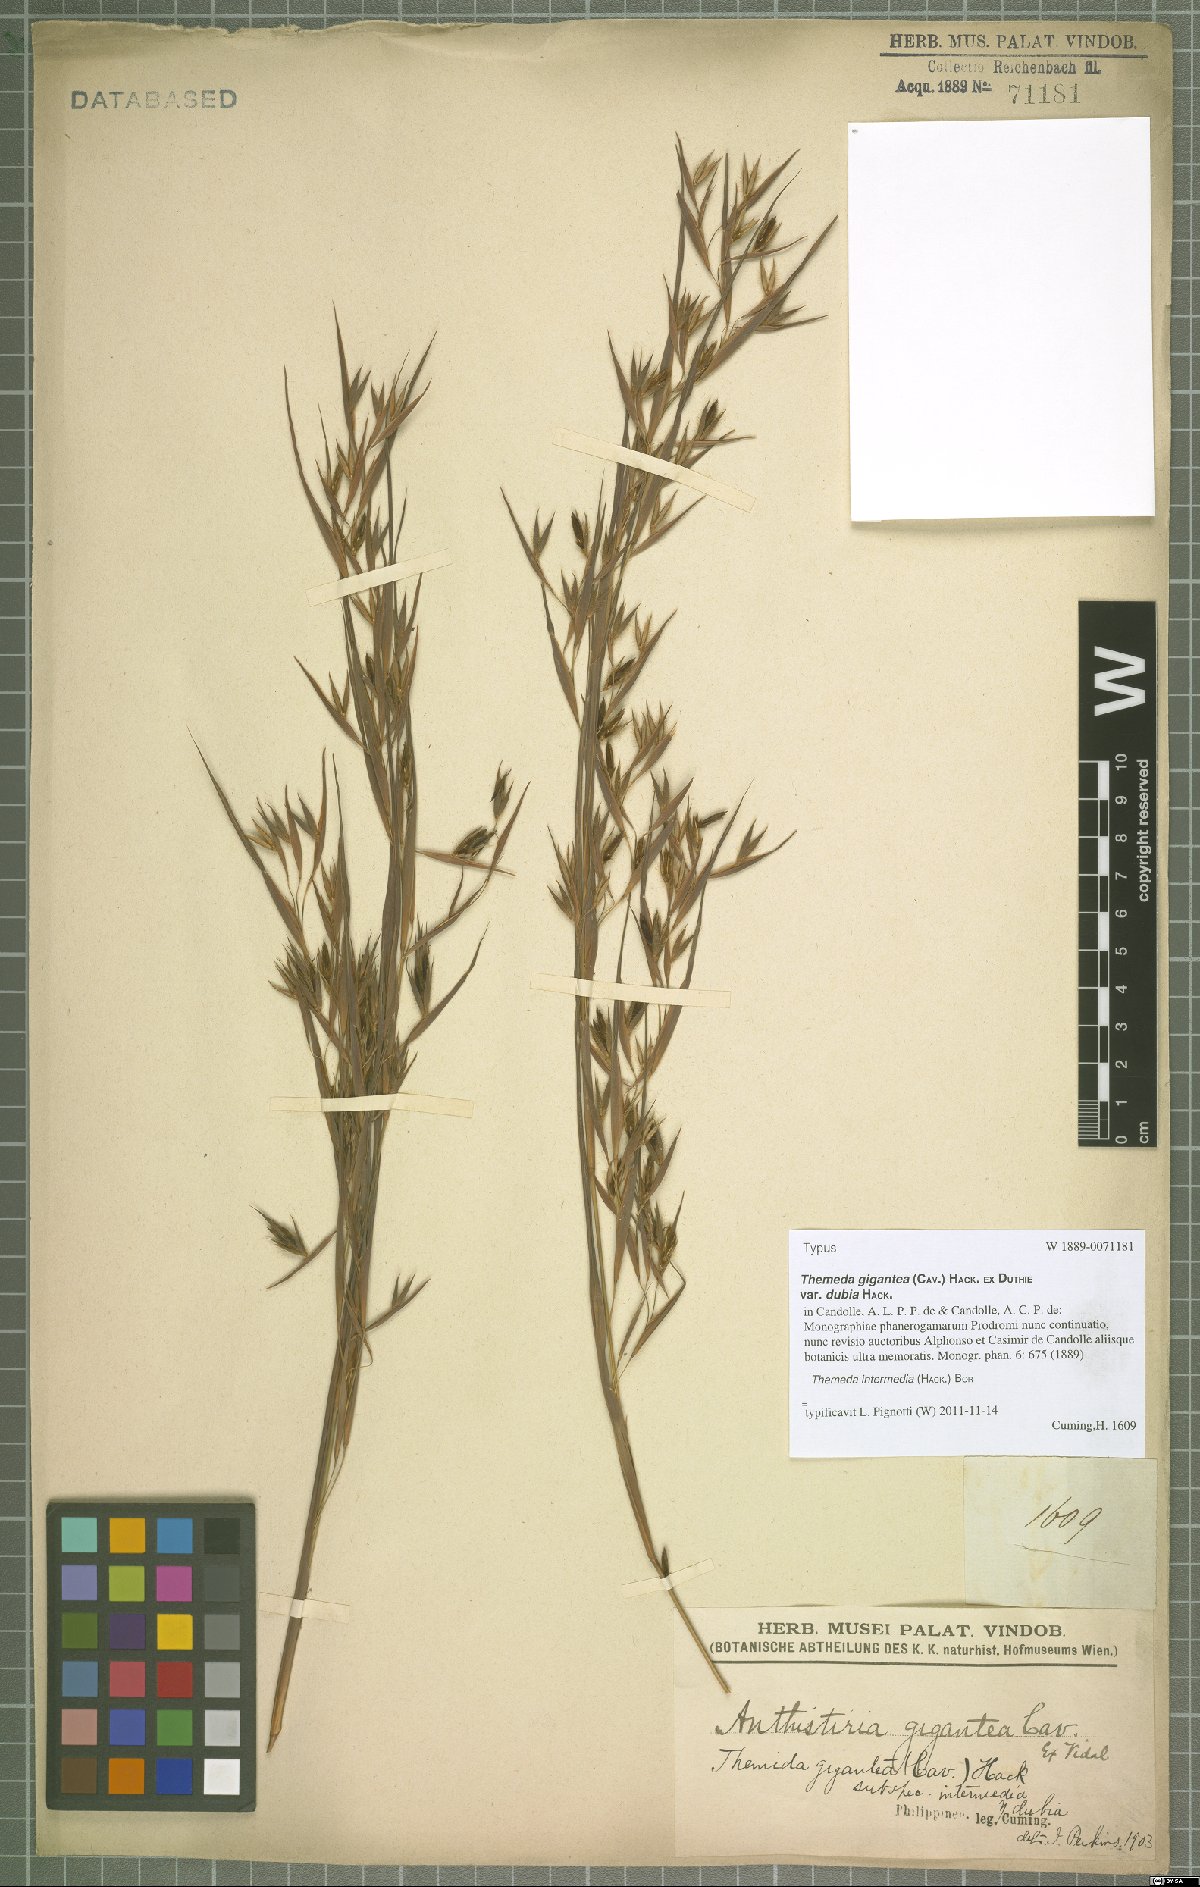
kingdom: Plantae
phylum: Tracheophyta
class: Liliopsida
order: Poales
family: Poaceae
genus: Themeda
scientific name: Themeda intermedia
